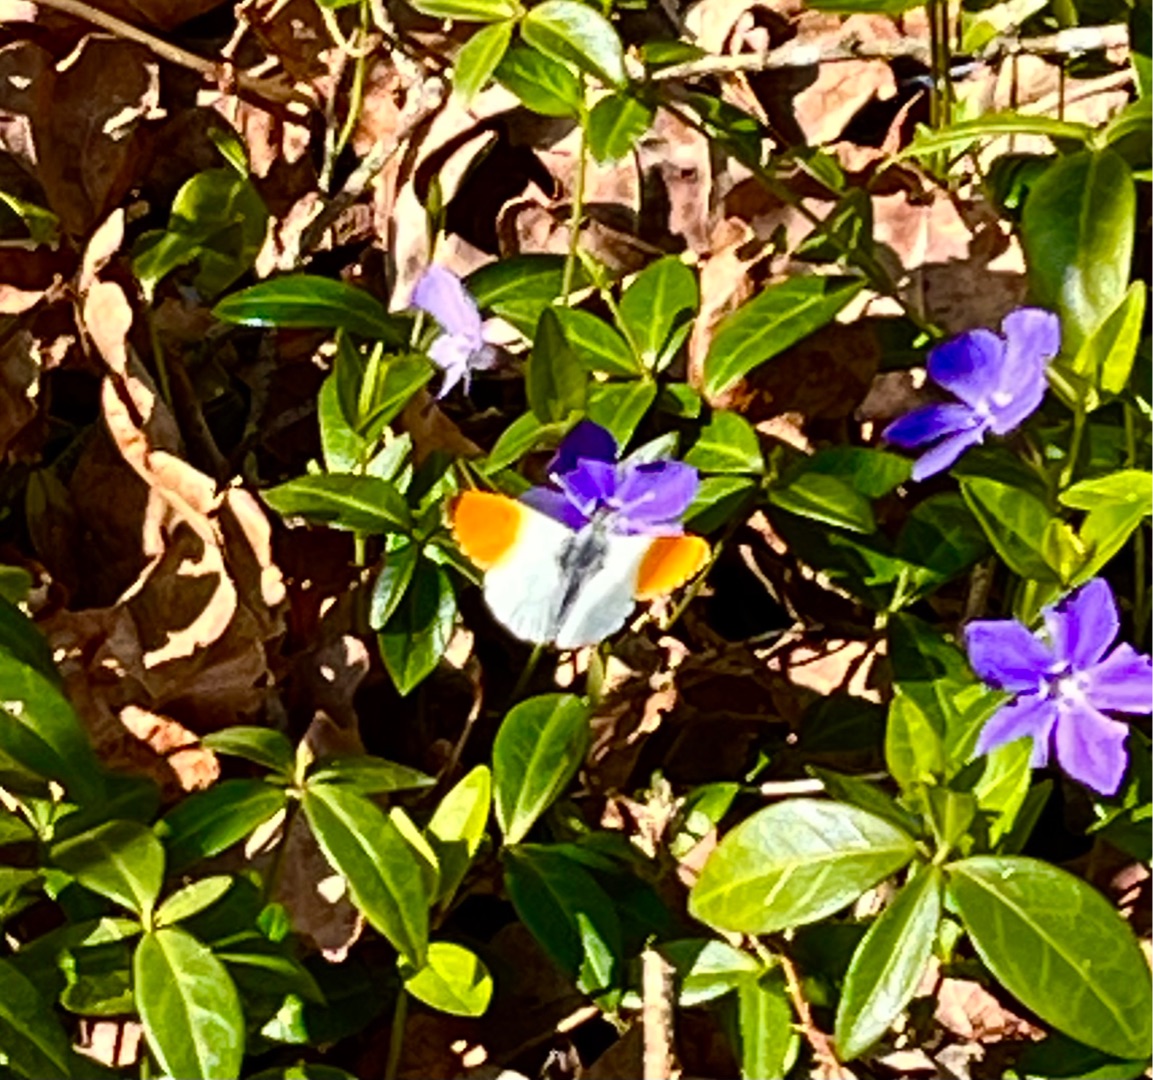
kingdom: Animalia
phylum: Arthropoda
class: Insecta
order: Lepidoptera
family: Pieridae
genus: Anthocharis
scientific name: Anthocharis cardamines
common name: Aurora
